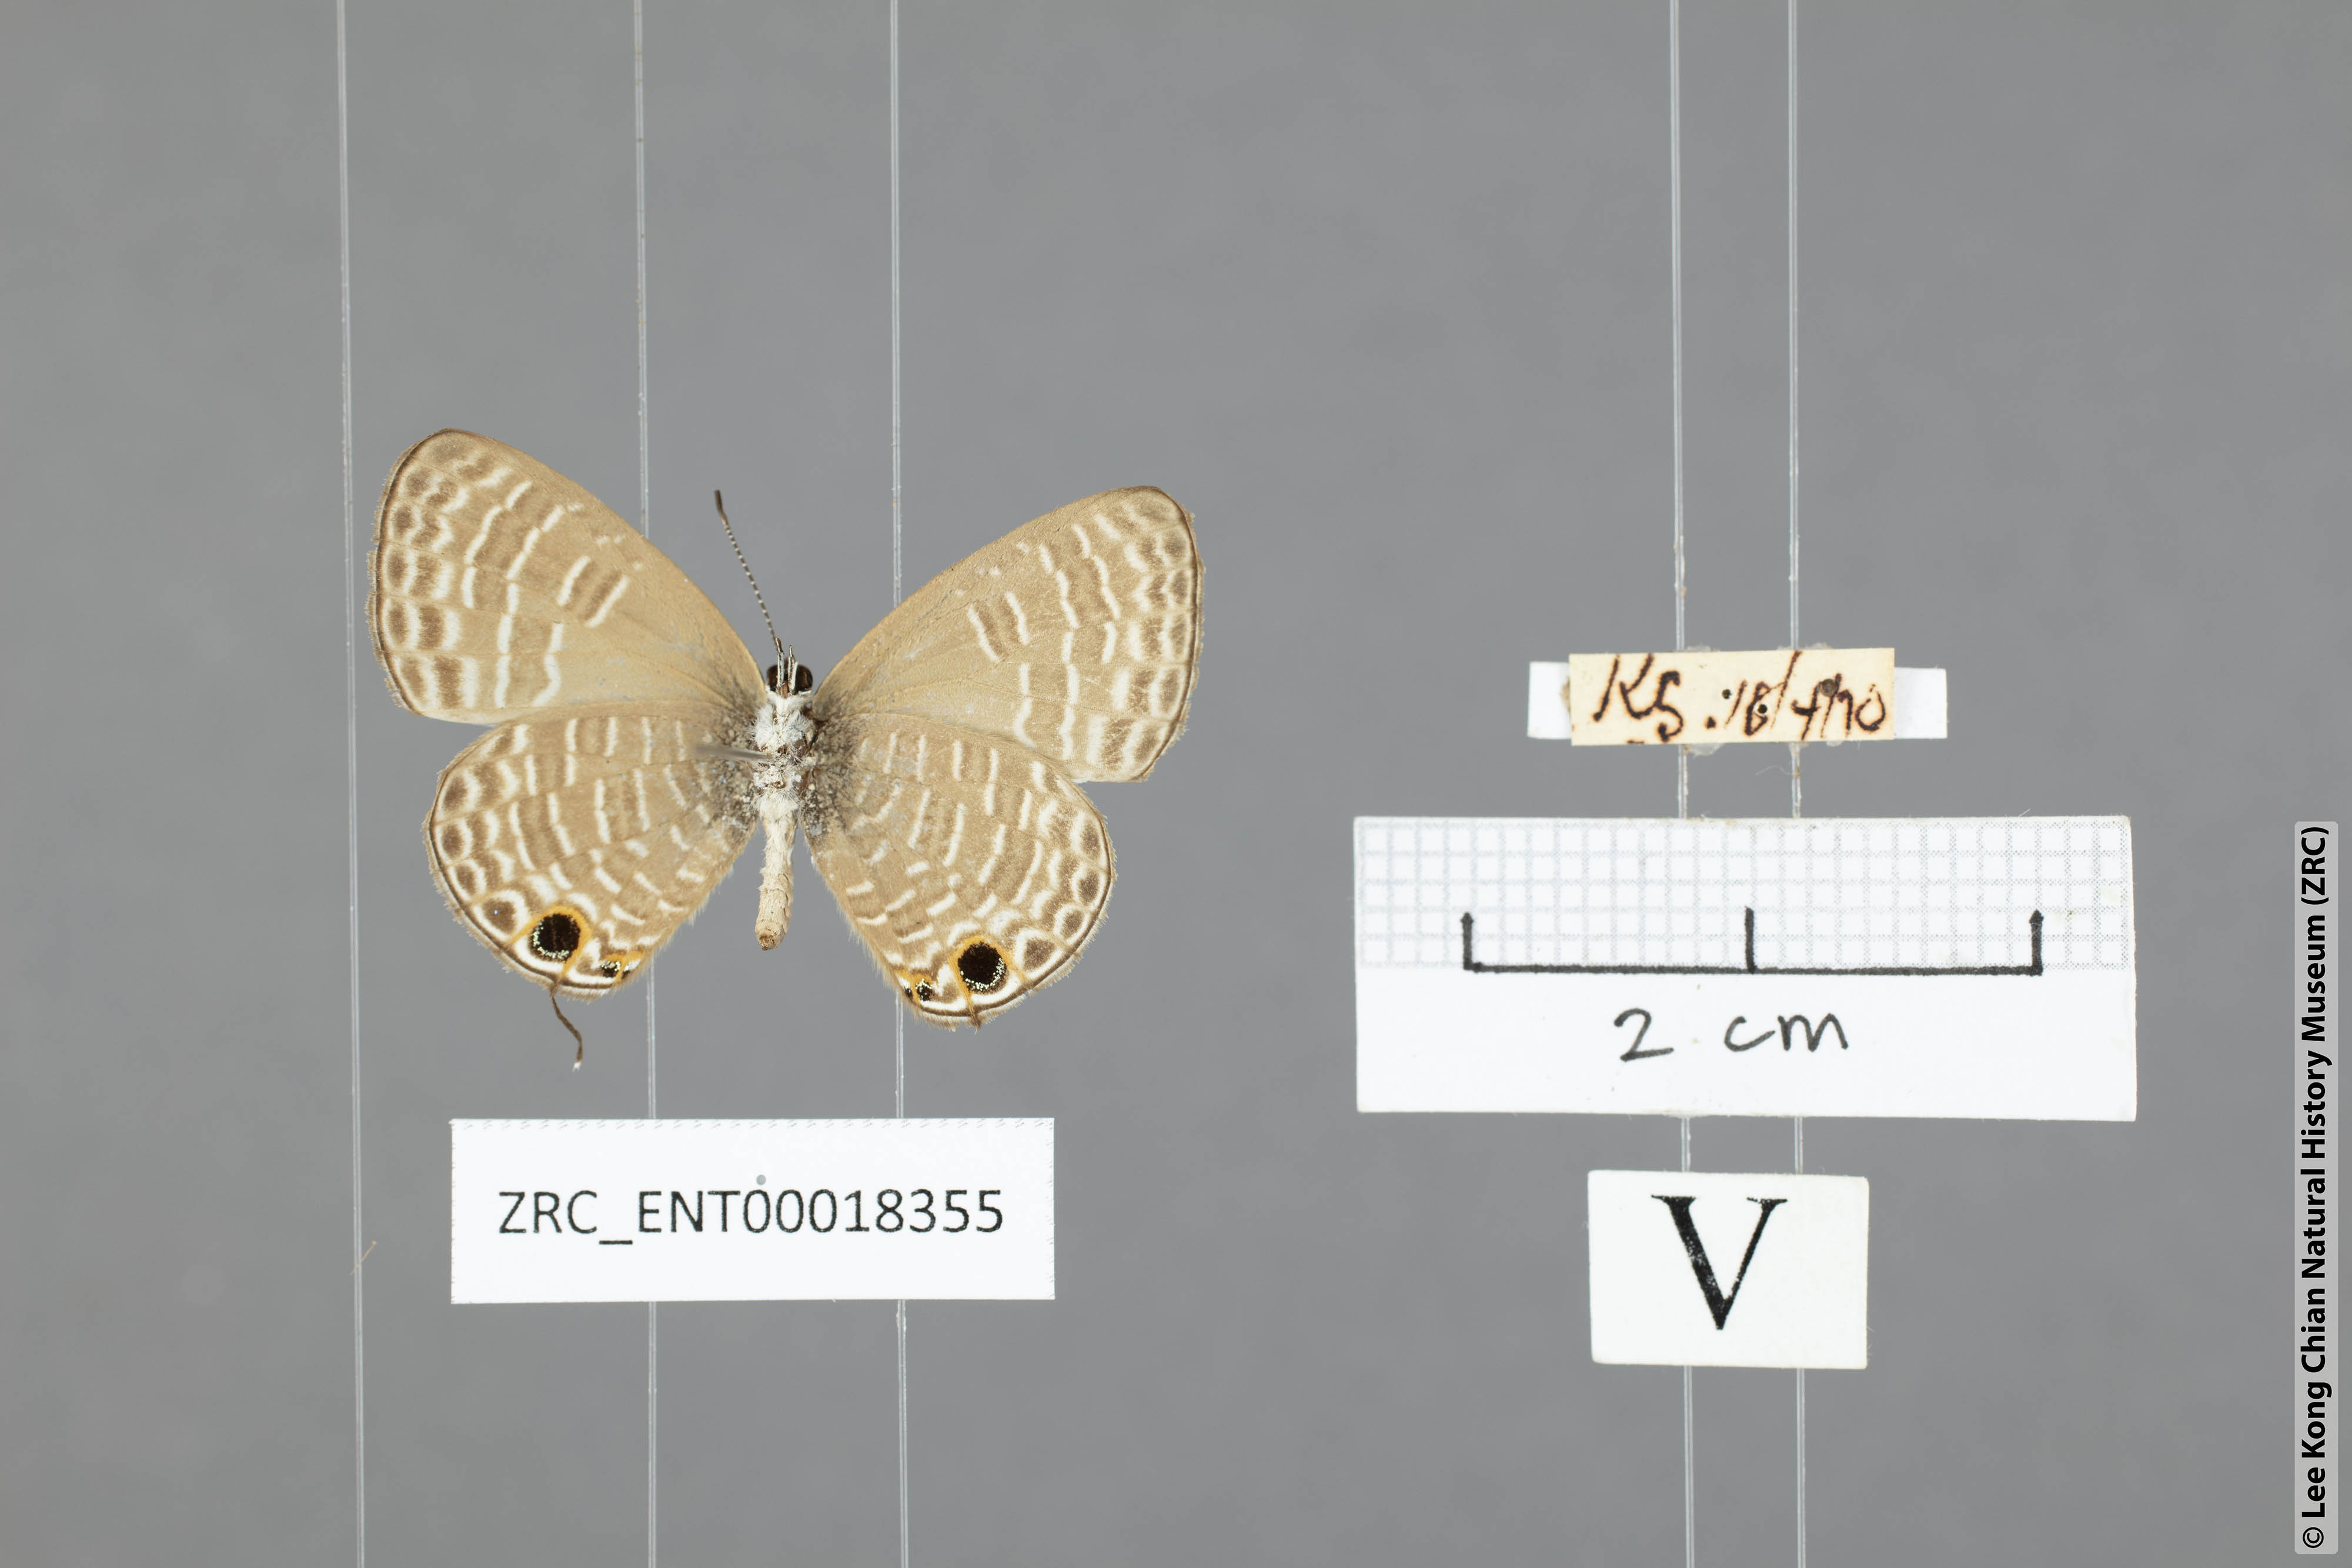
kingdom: Animalia
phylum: Arthropoda
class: Insecta
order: Lepidoptera
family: Lycaenidae
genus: Nacaduba
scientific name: Nacaduba hermus
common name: Pale four-line blue
